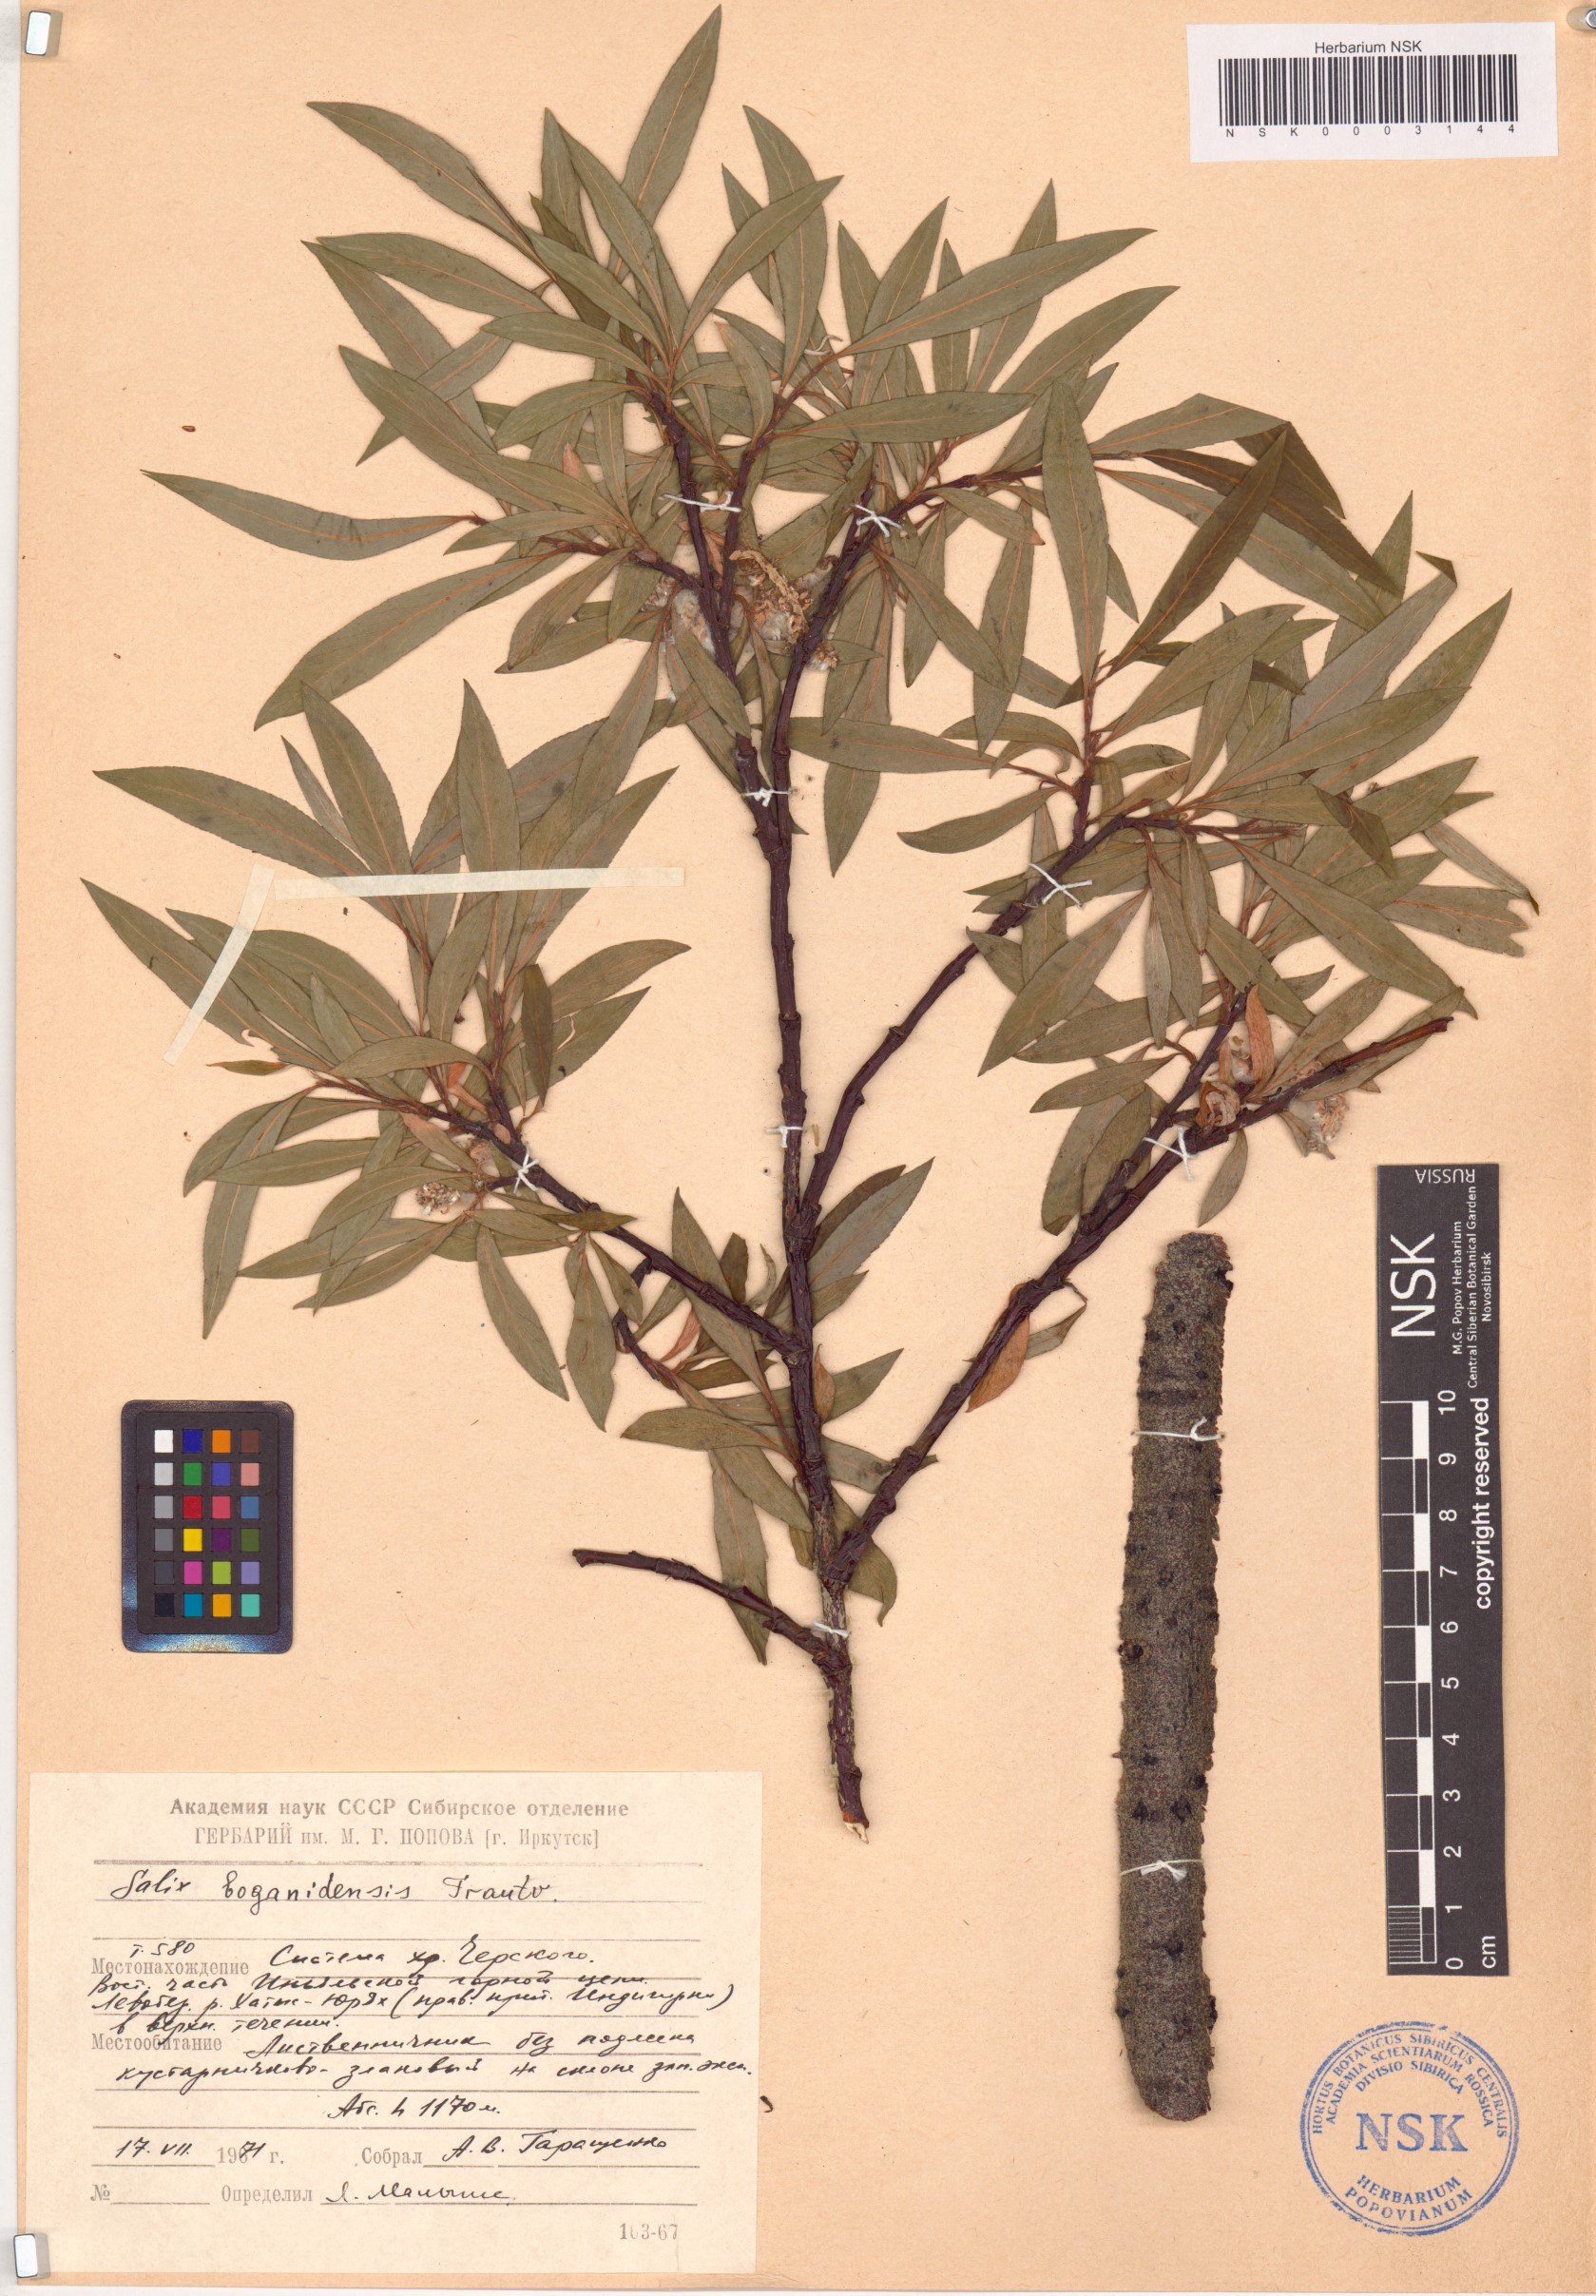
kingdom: Plantae
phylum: Tracheophyta
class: Magnoliopsida
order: Malpighiales
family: Salicaceae
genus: Salix
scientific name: Salix boganidensis
